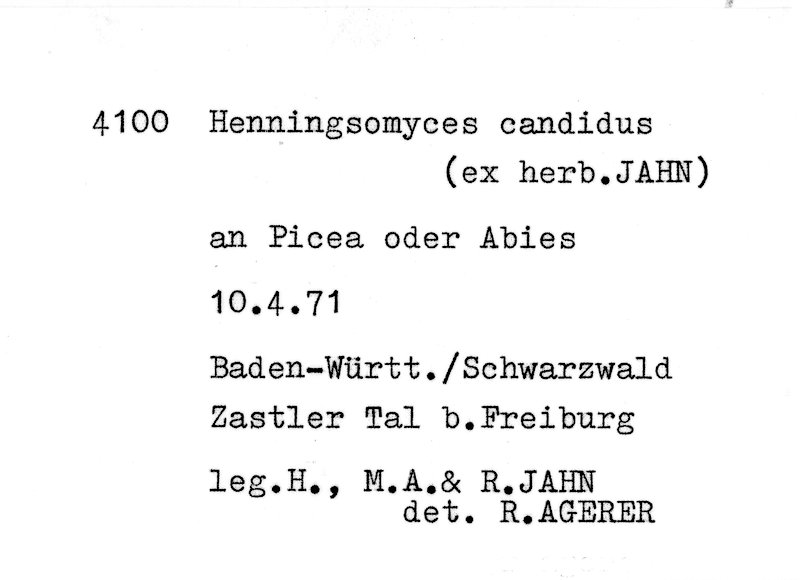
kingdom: Fungi
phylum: Basidiomycota
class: Agaricomycetes
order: Agaricales
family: Marasmiaceae
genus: Henningsomyces
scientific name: Henningsomyces candidus
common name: White tubelet
